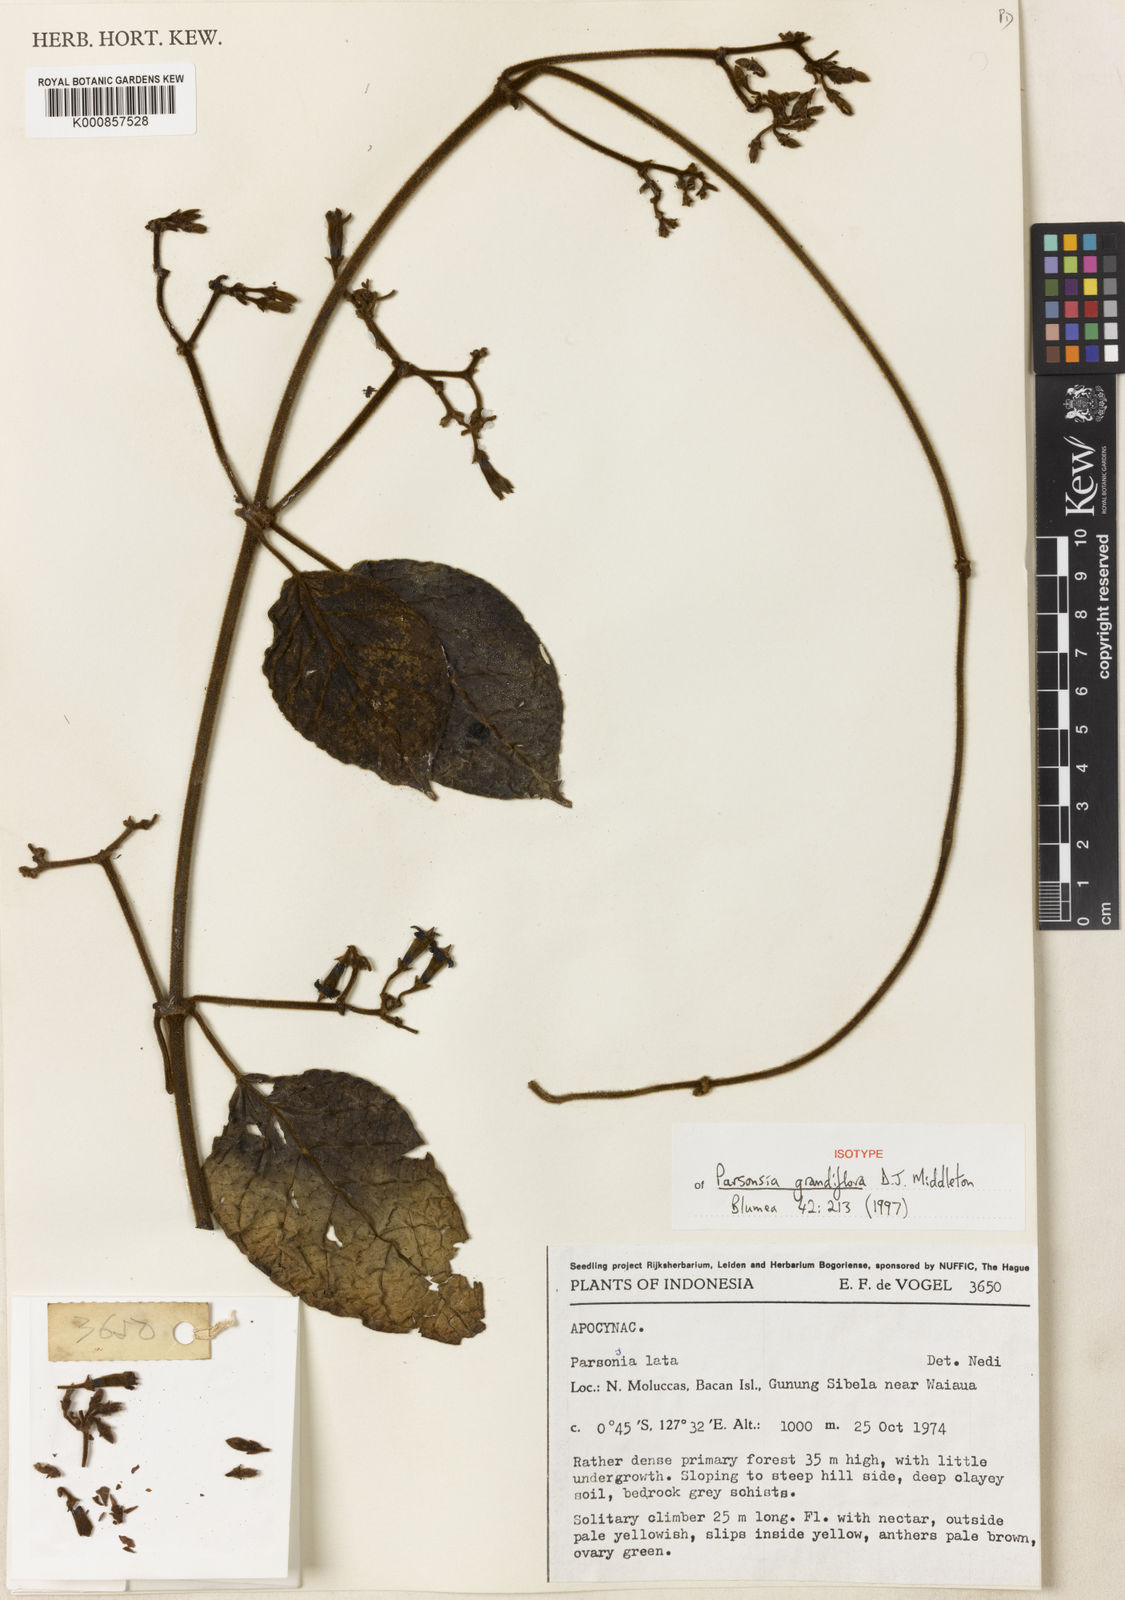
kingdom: Plantae
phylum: Tracheophyta
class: Magnoliopsida
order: Gentianales
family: Apocynaceae
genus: Parsonsia
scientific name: Parsonsia grandiflora
